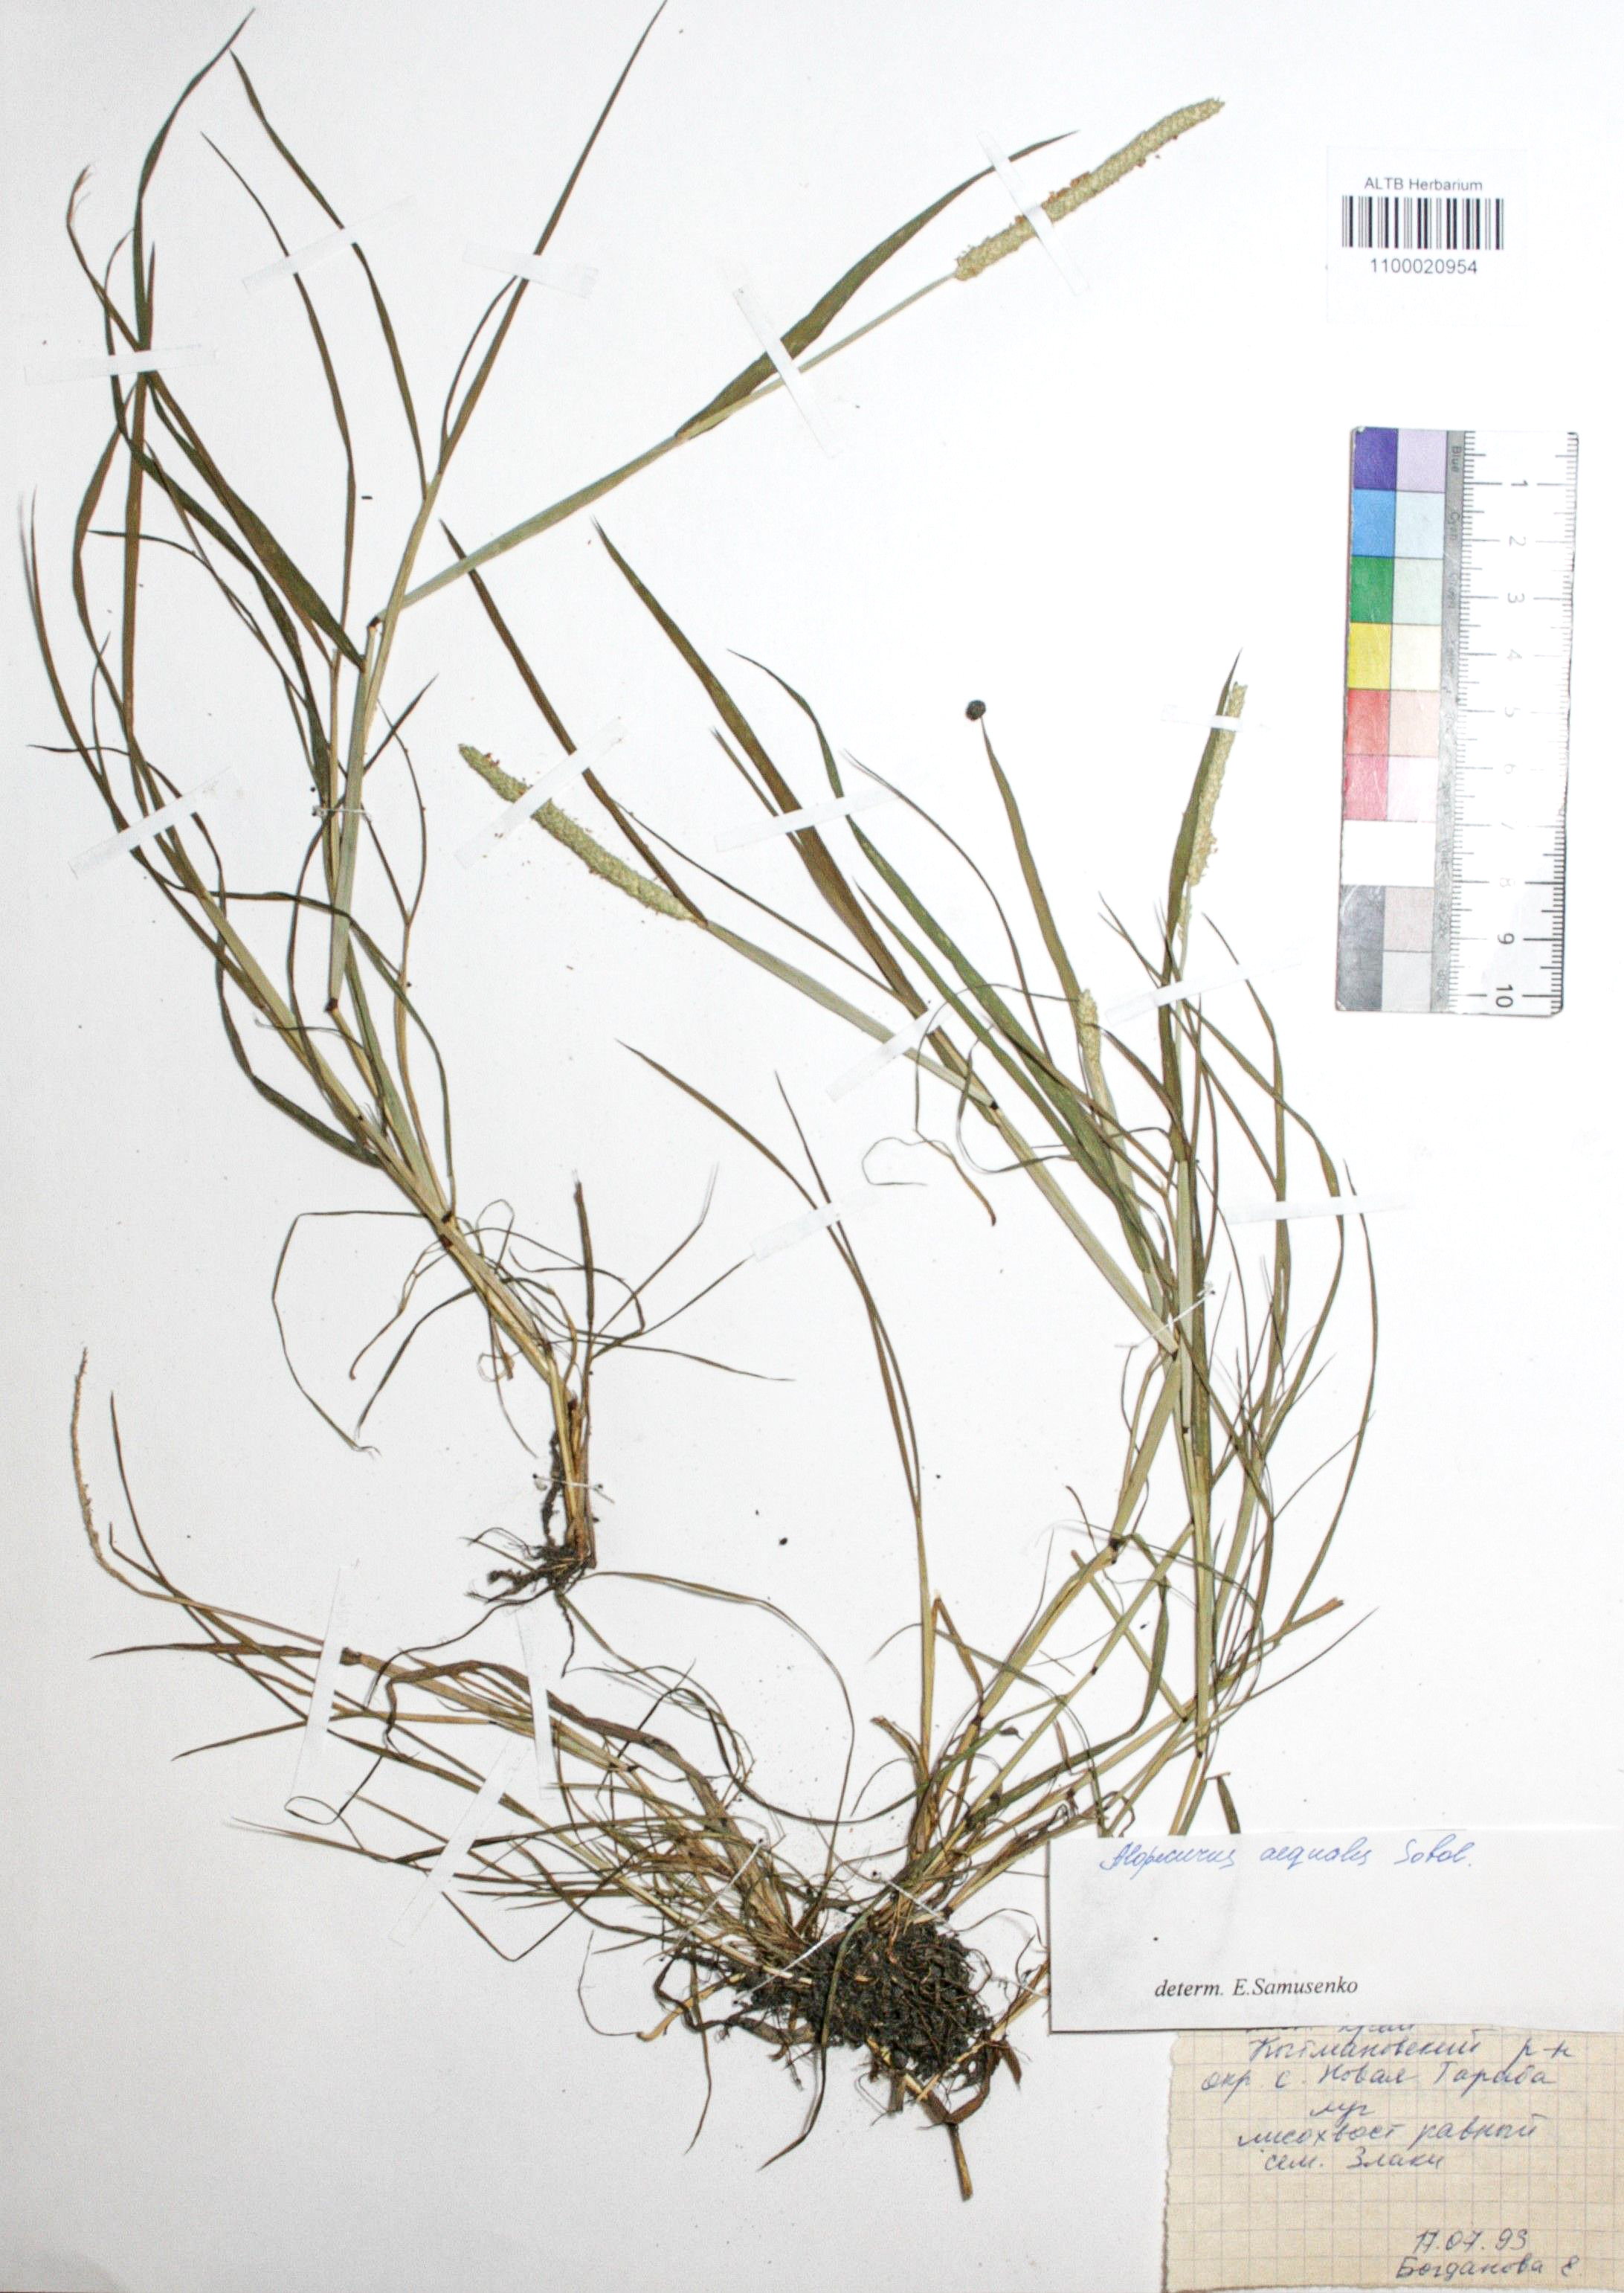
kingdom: Plantae
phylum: Tracheophyta
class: Liliopsida
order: Poales
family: Poaceae
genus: Alopecurus
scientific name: Alopecurus aequalis
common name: Orange foxtail
